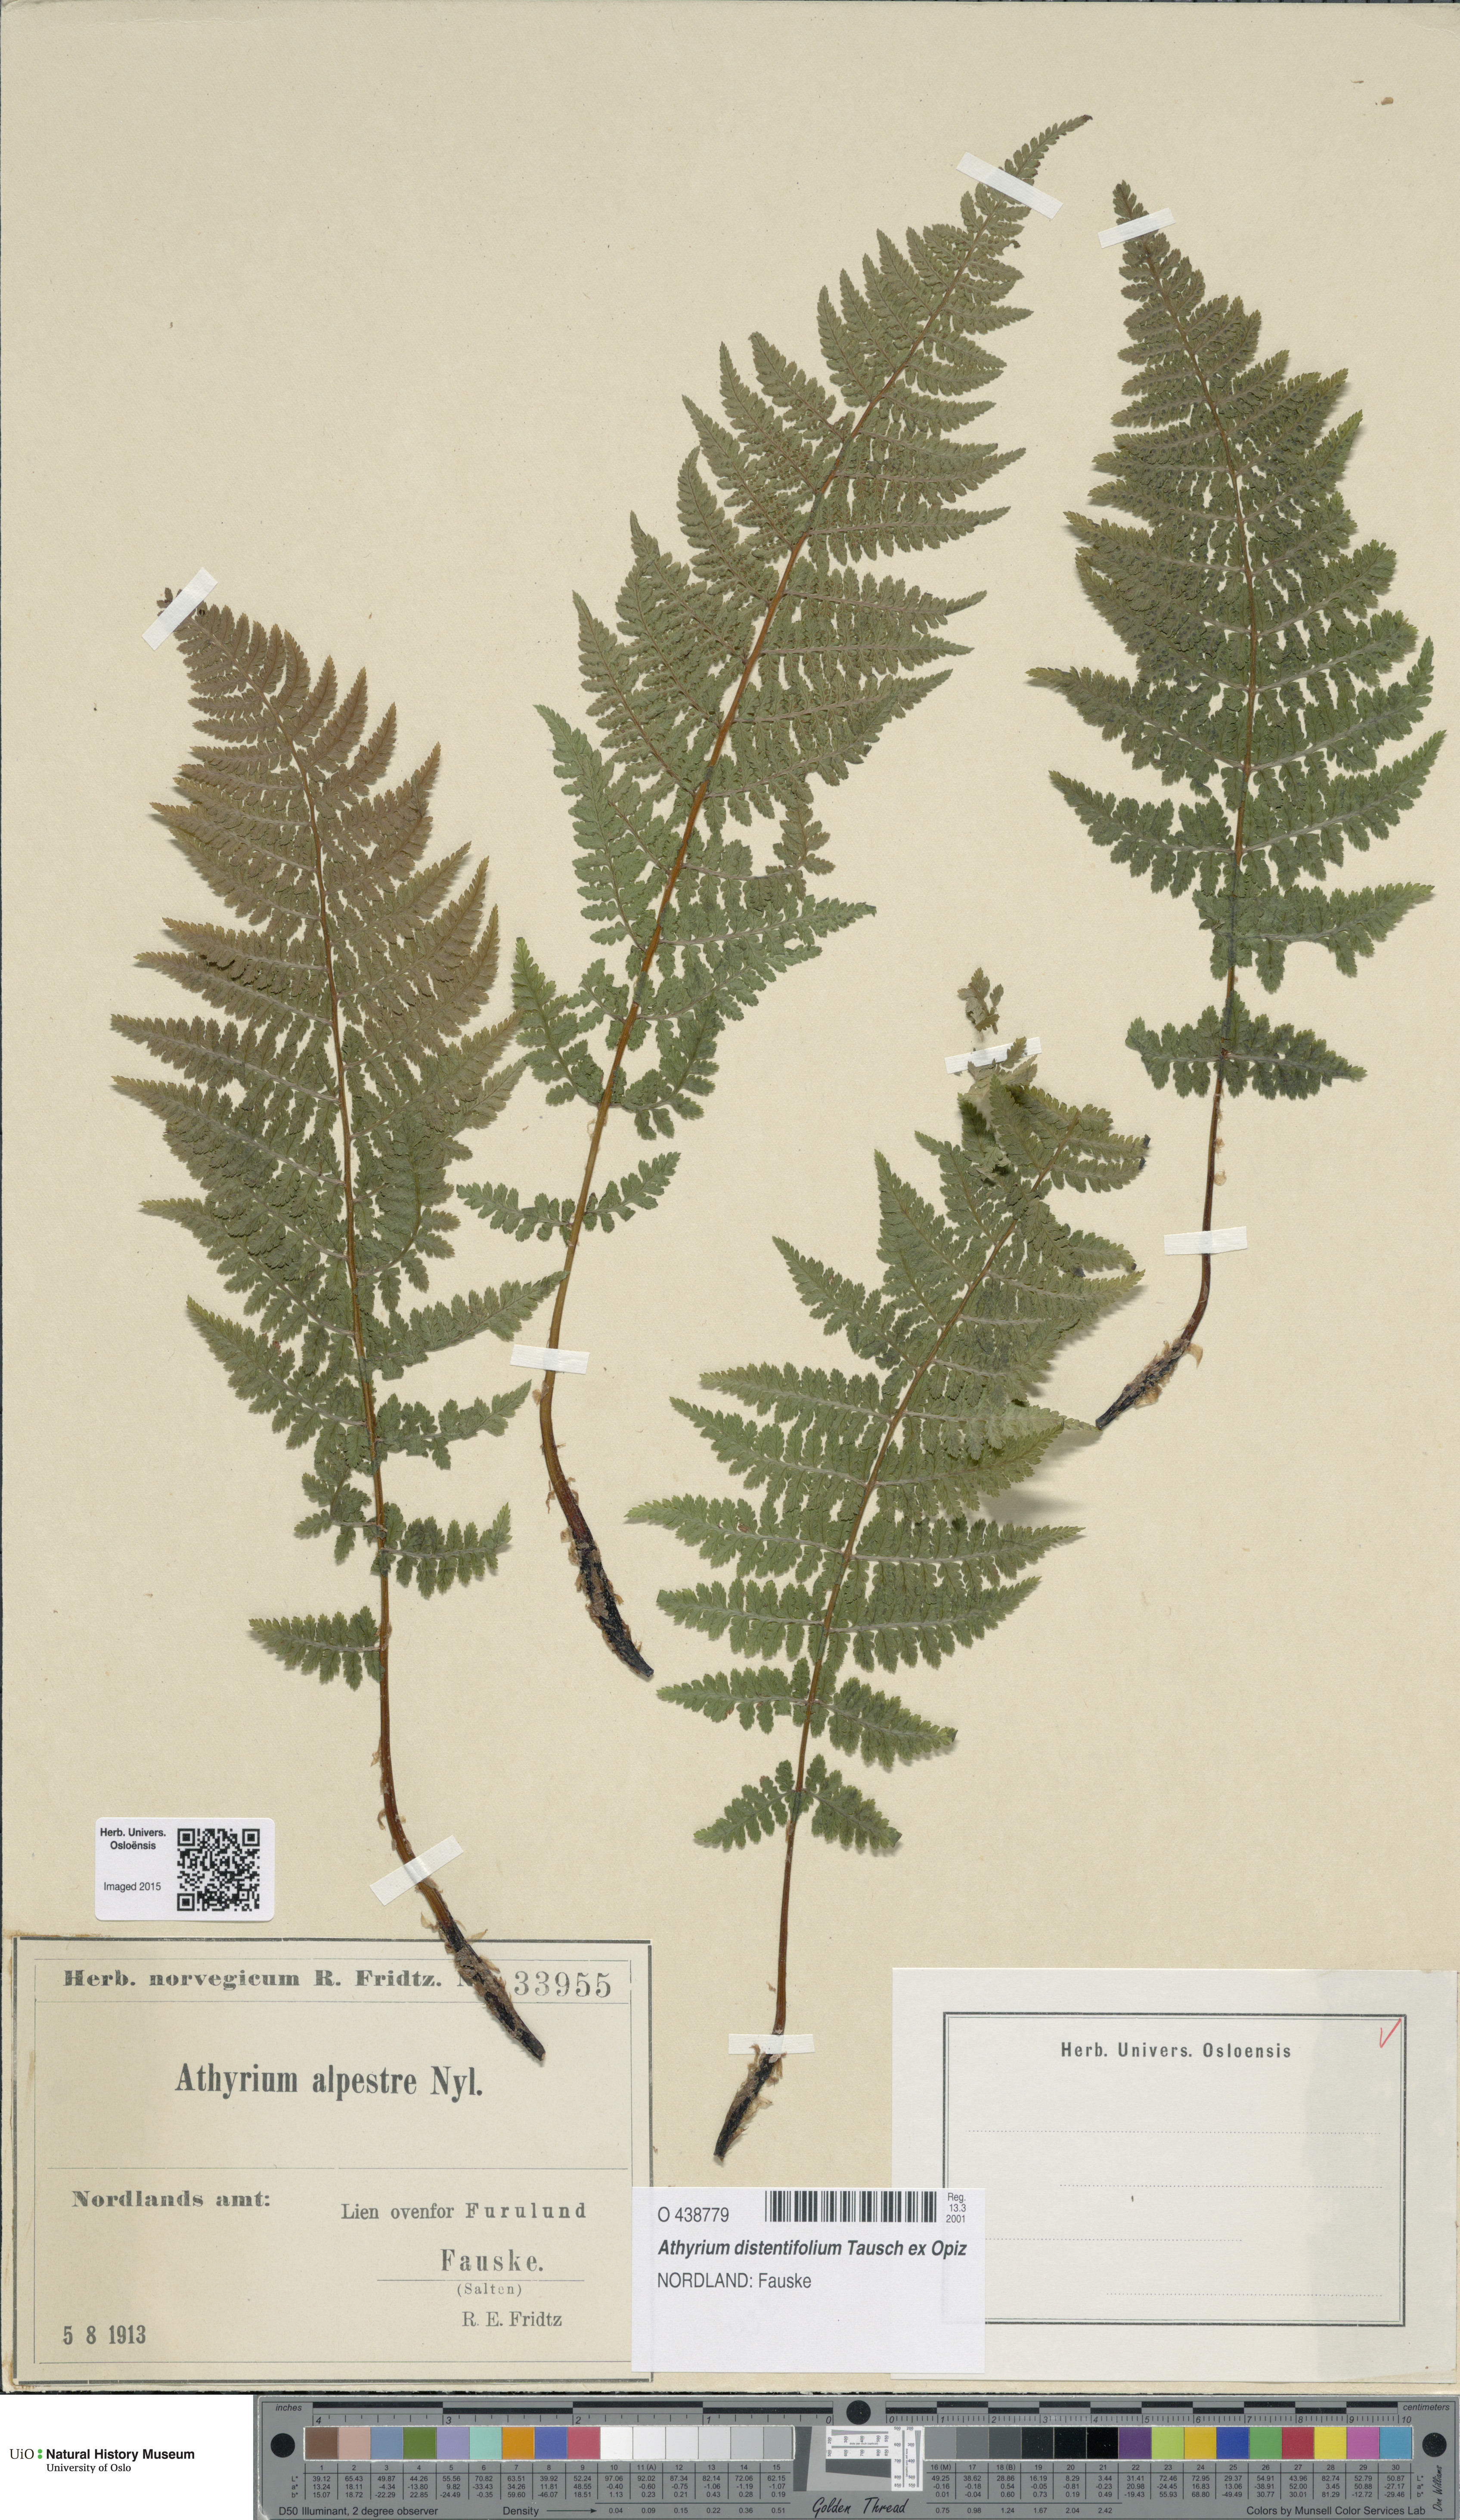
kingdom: Plantae
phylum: Tracheophyta
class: Polypodiopsida
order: Polypodiales
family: Athyriaceae
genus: Pseudathyrium
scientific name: Pseudathyrium alpestre
